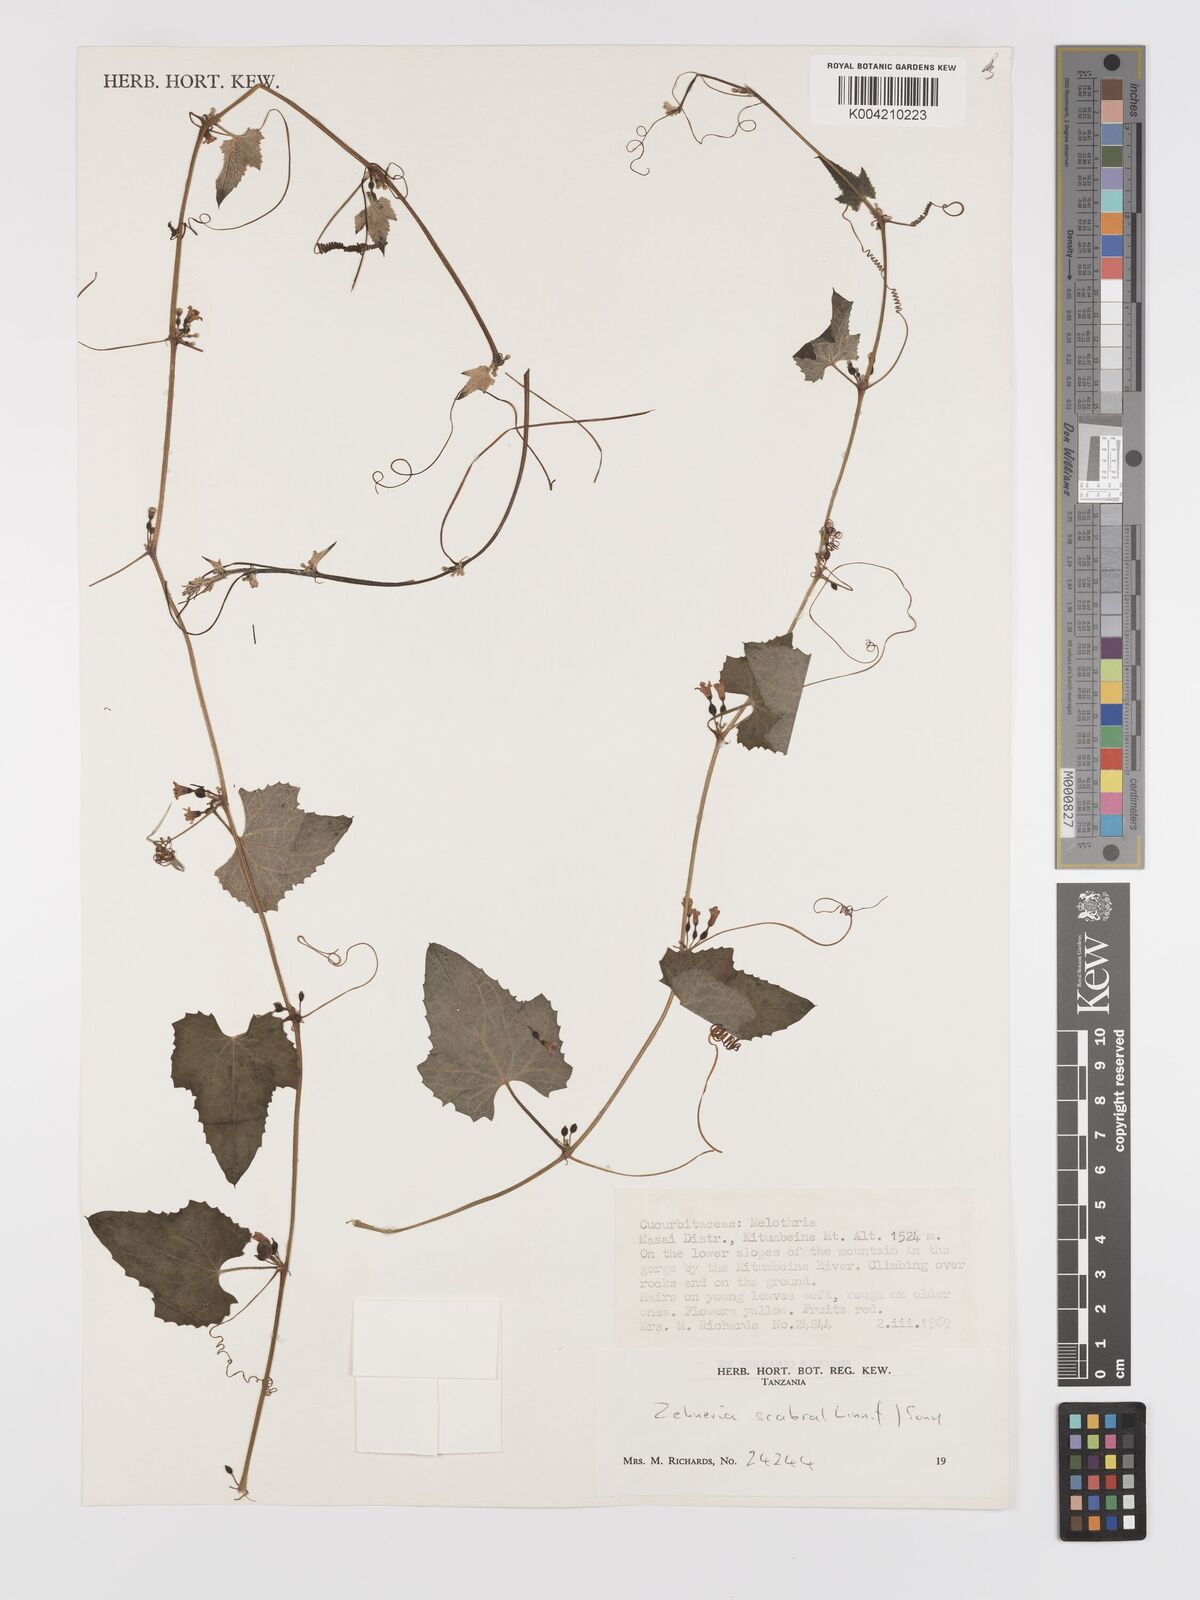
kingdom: Plantae
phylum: Tracheophyta
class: Magnoliopsida
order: Cucurbitales
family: Cucurbitaceae
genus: Zehneria
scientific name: Zehneria scabra
